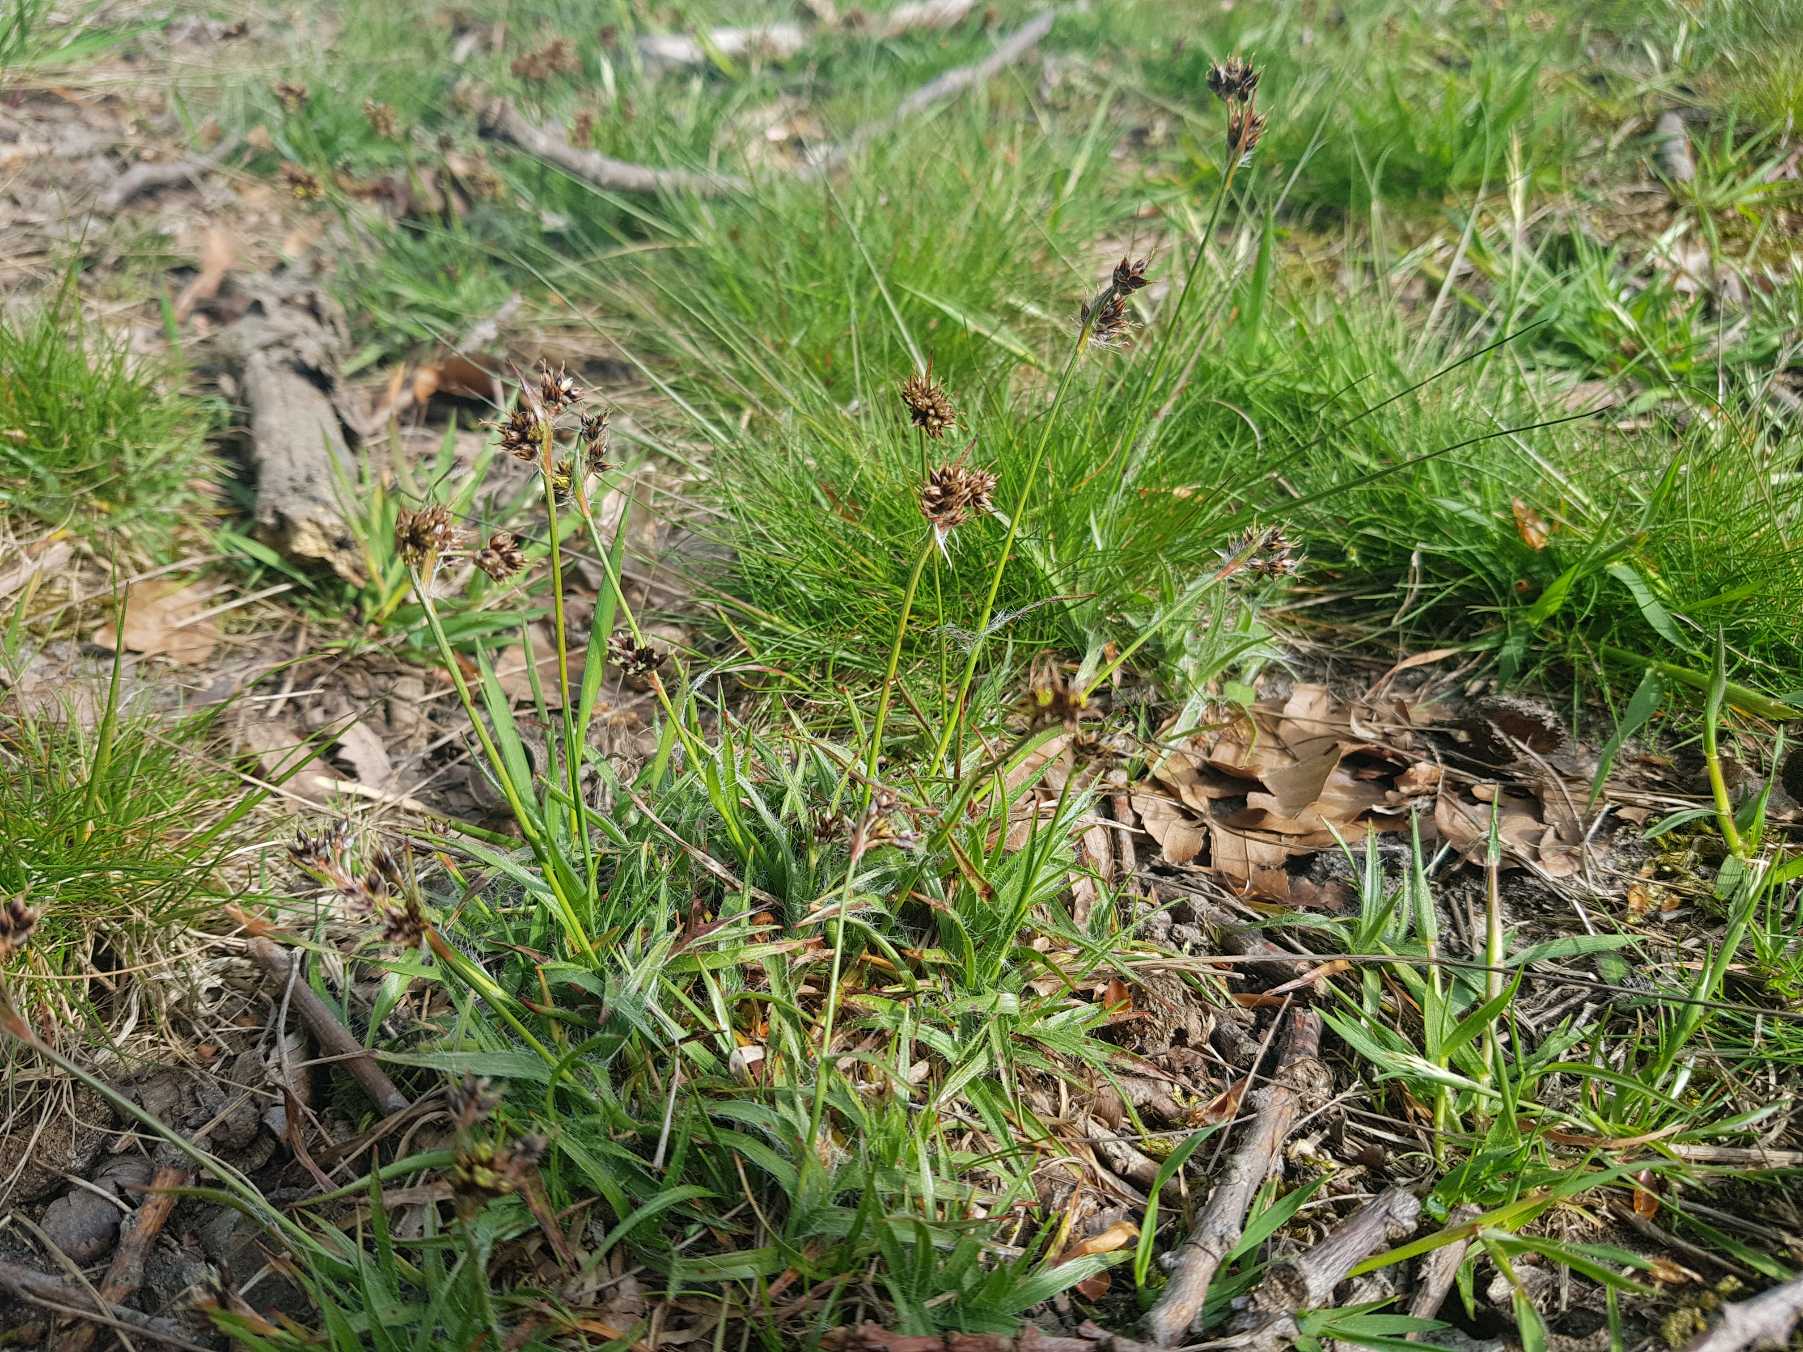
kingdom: Plantae
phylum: Tracheophyta
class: Liliopsida
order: Poales
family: Juncaceae
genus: Luzula
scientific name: Luzula campestris
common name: Mark-frytle
